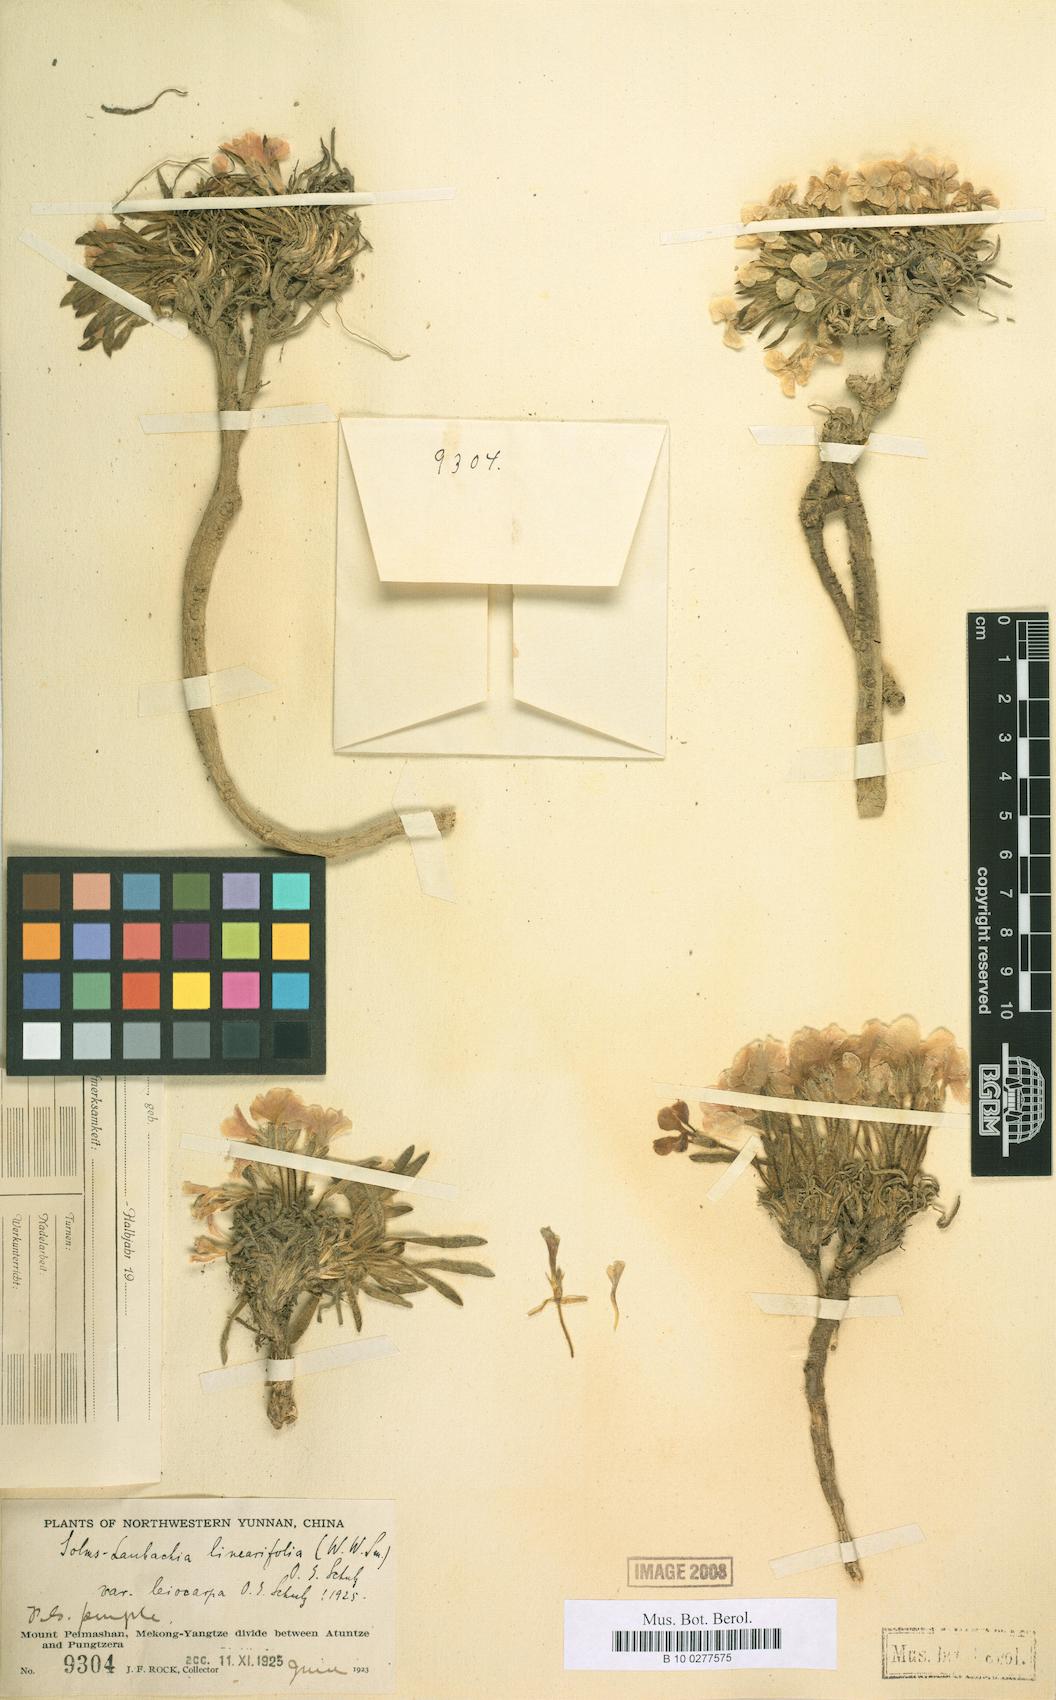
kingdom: Plantae
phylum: Tracheophyta
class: Magnoliopsida
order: Brassicales
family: Brassicaceae
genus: Solms-laubachia
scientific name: Solms-laubachia linearifolia
